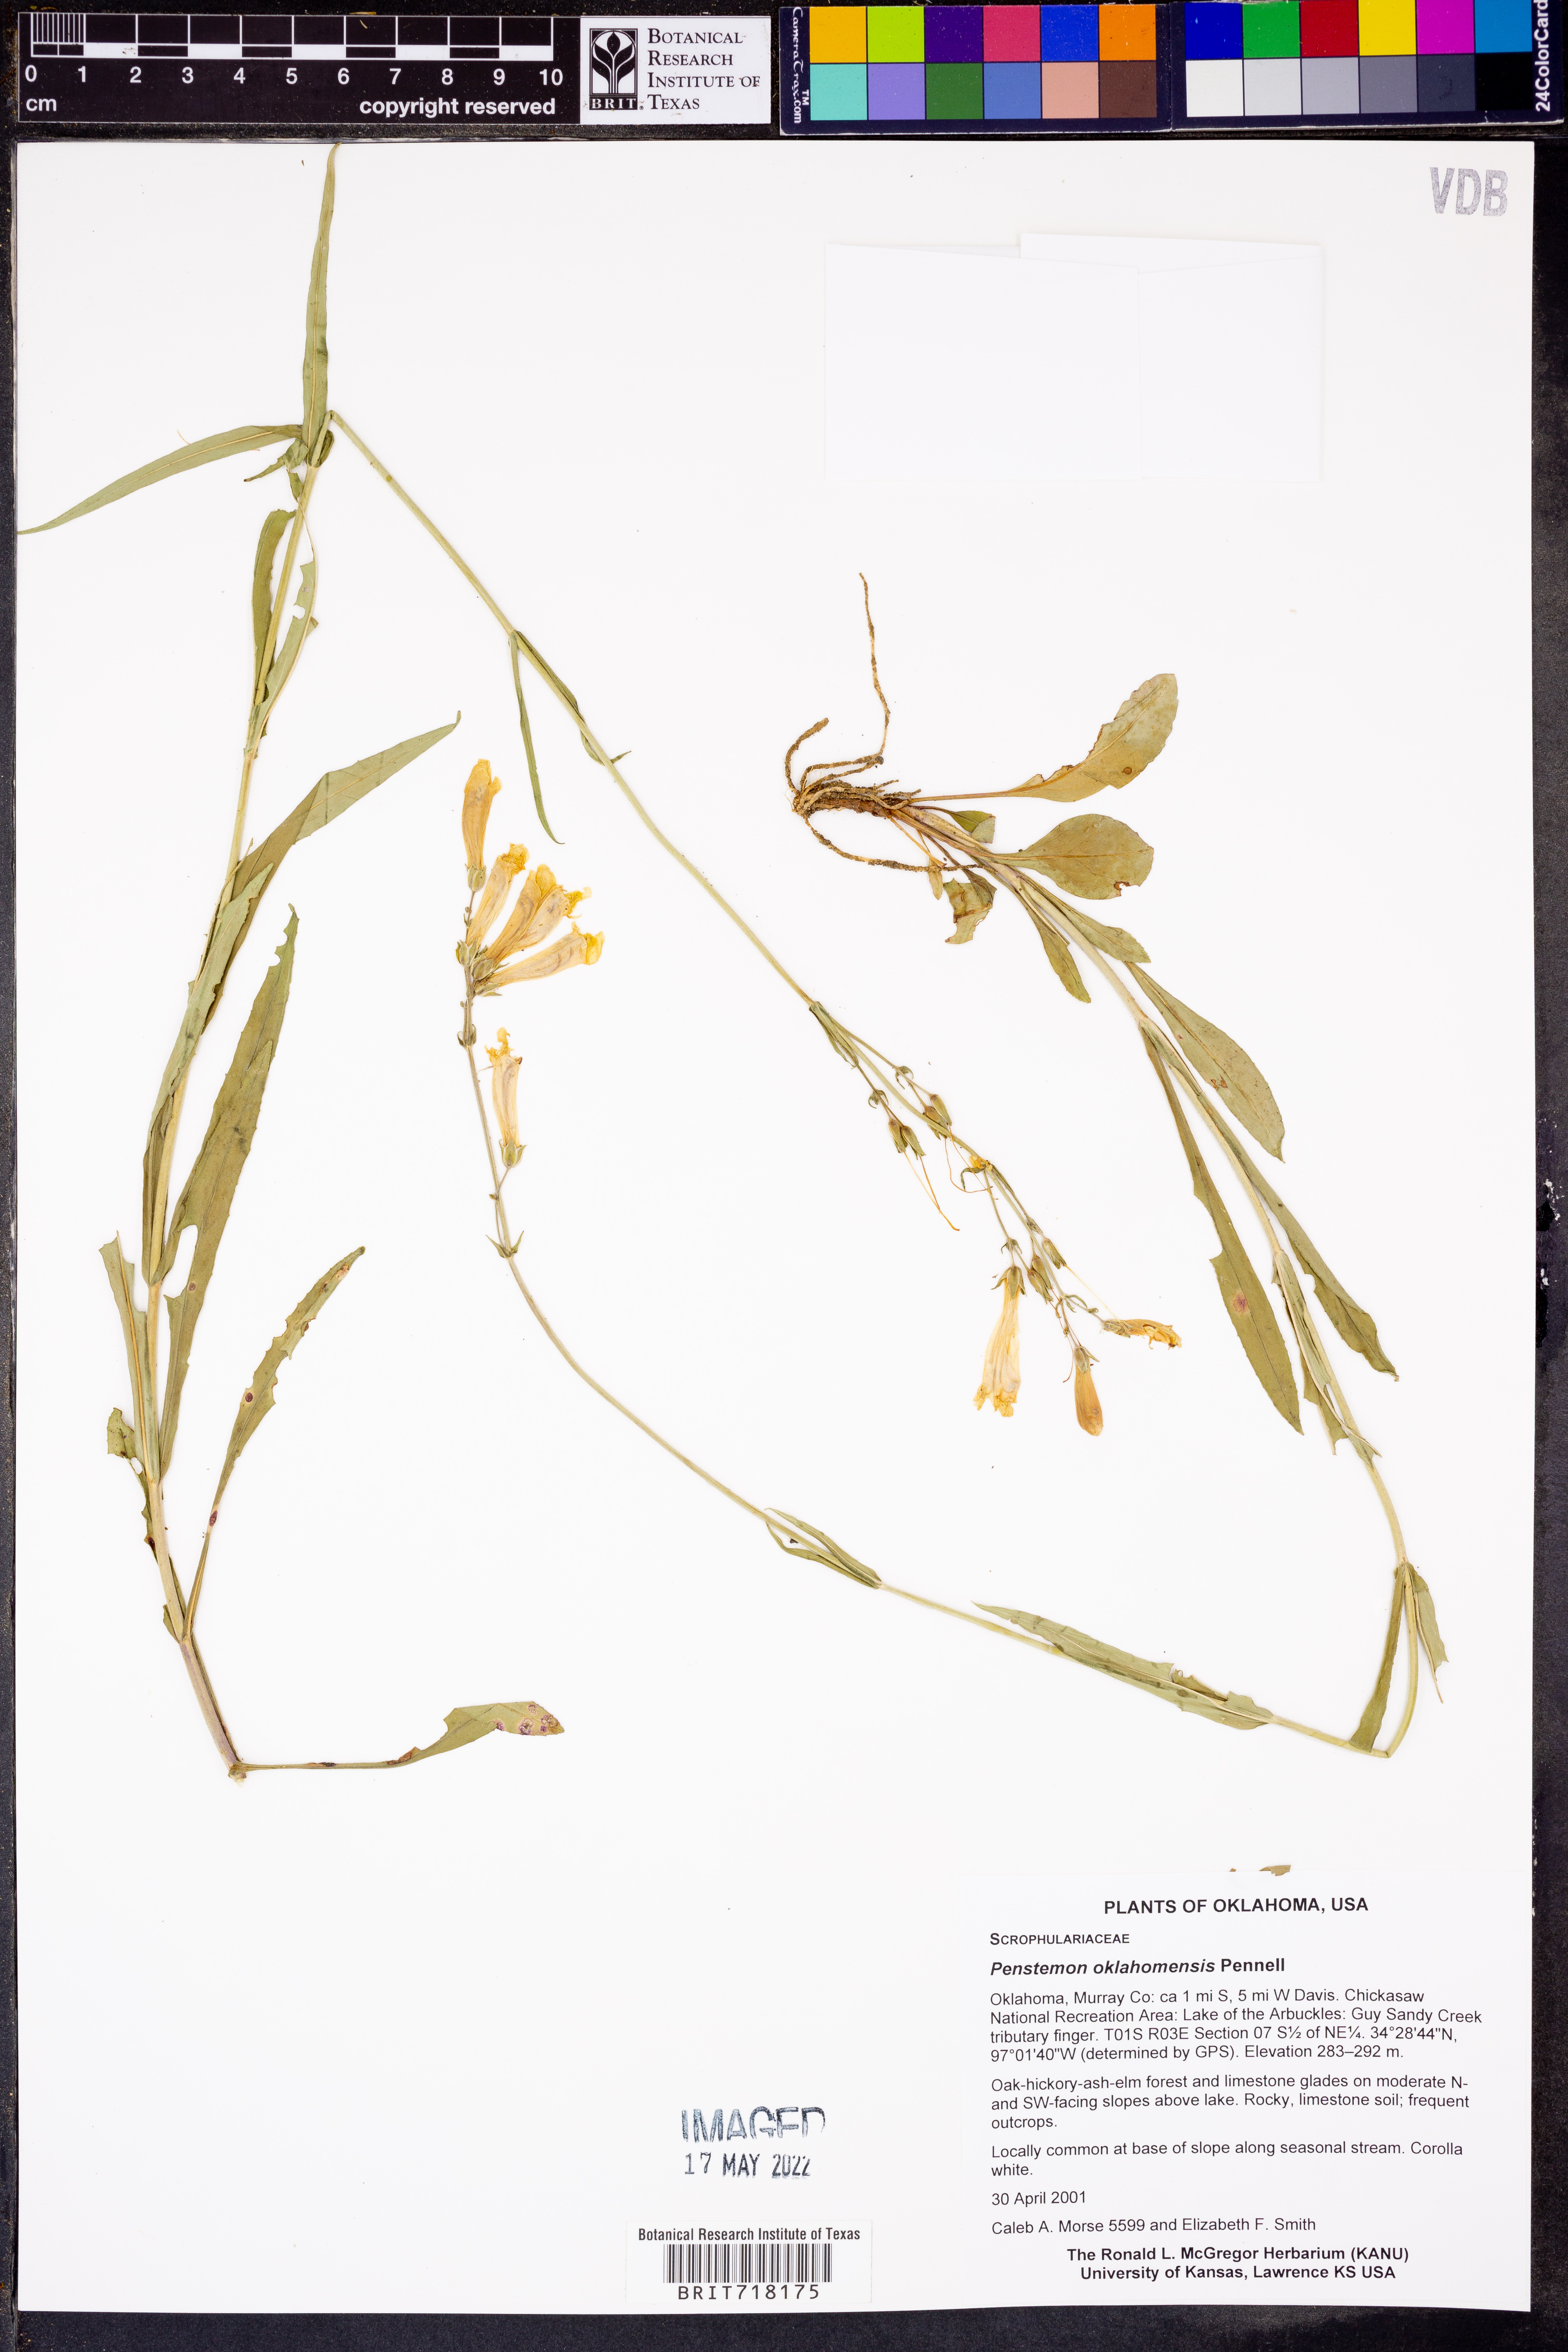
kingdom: Plantae
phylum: Tracheophyta
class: Magnoliopsida
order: Lamiales
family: Plantaginaceae
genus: Penstemon
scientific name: Penstemon oklahomensis
